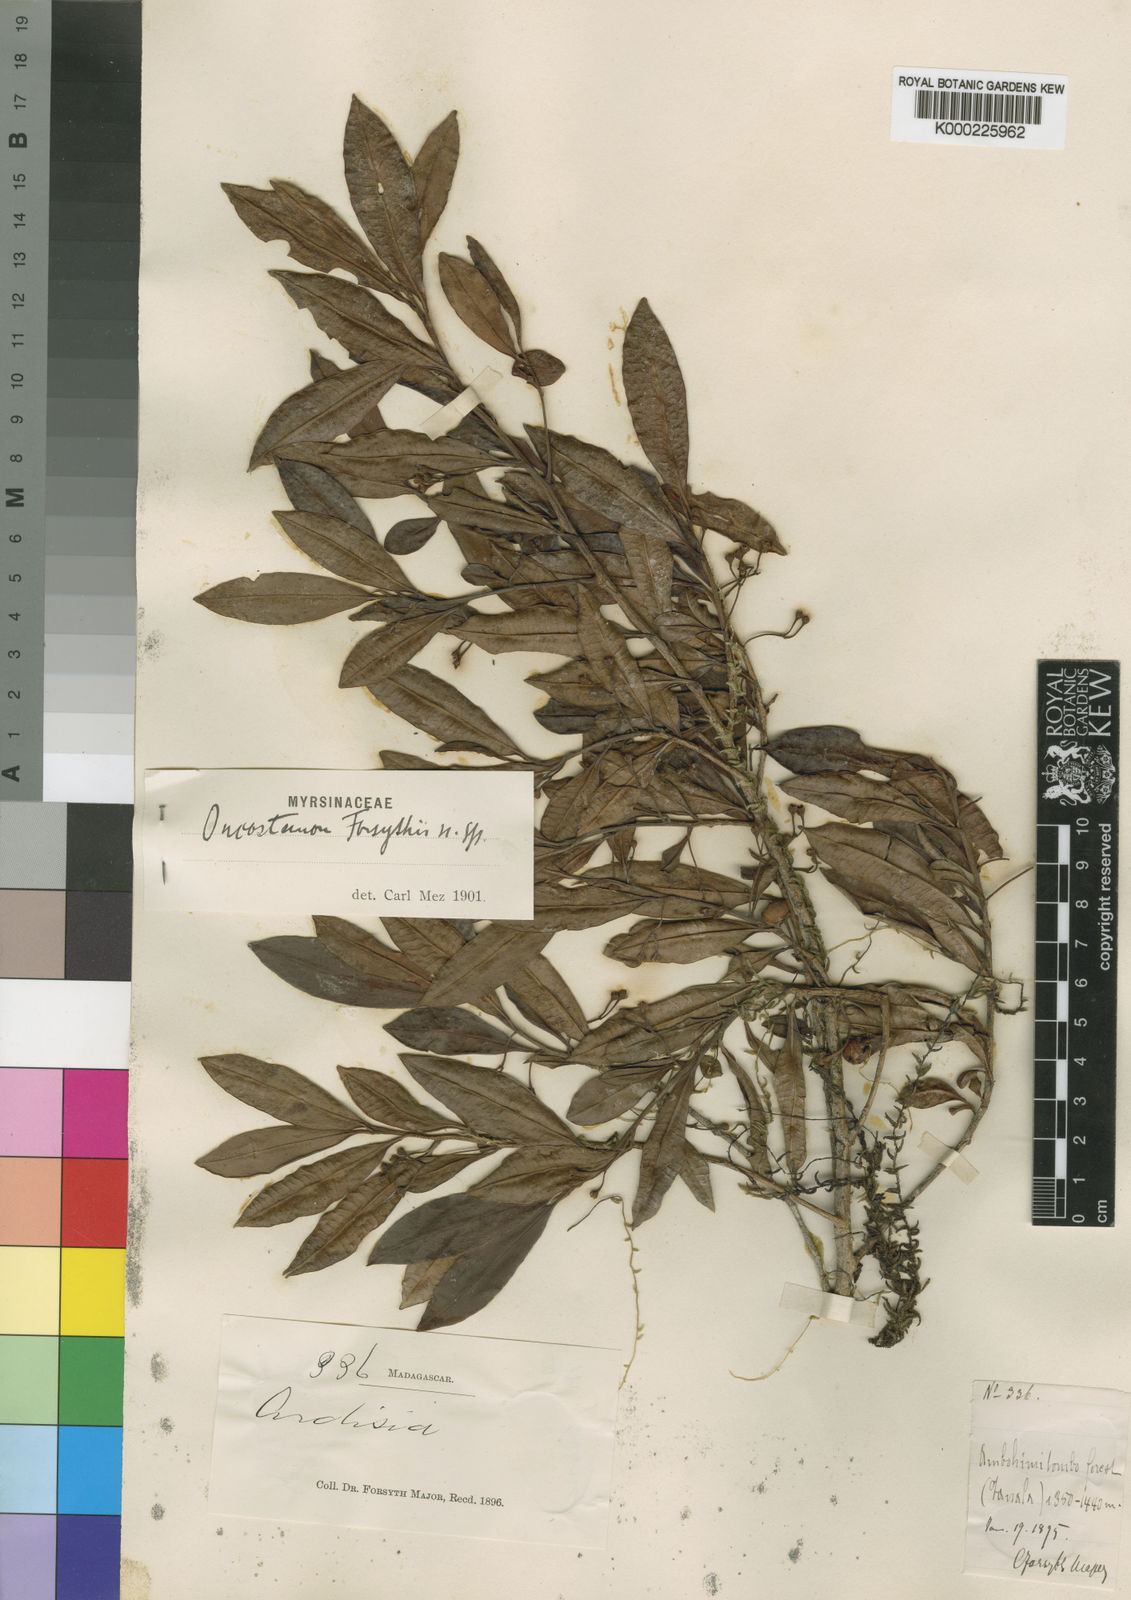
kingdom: Plantae
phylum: Tracheophyta
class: Magnoliopsida
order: Ericales
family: Primulaceae
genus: Oncostemum
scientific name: Oncostemum forsythii
